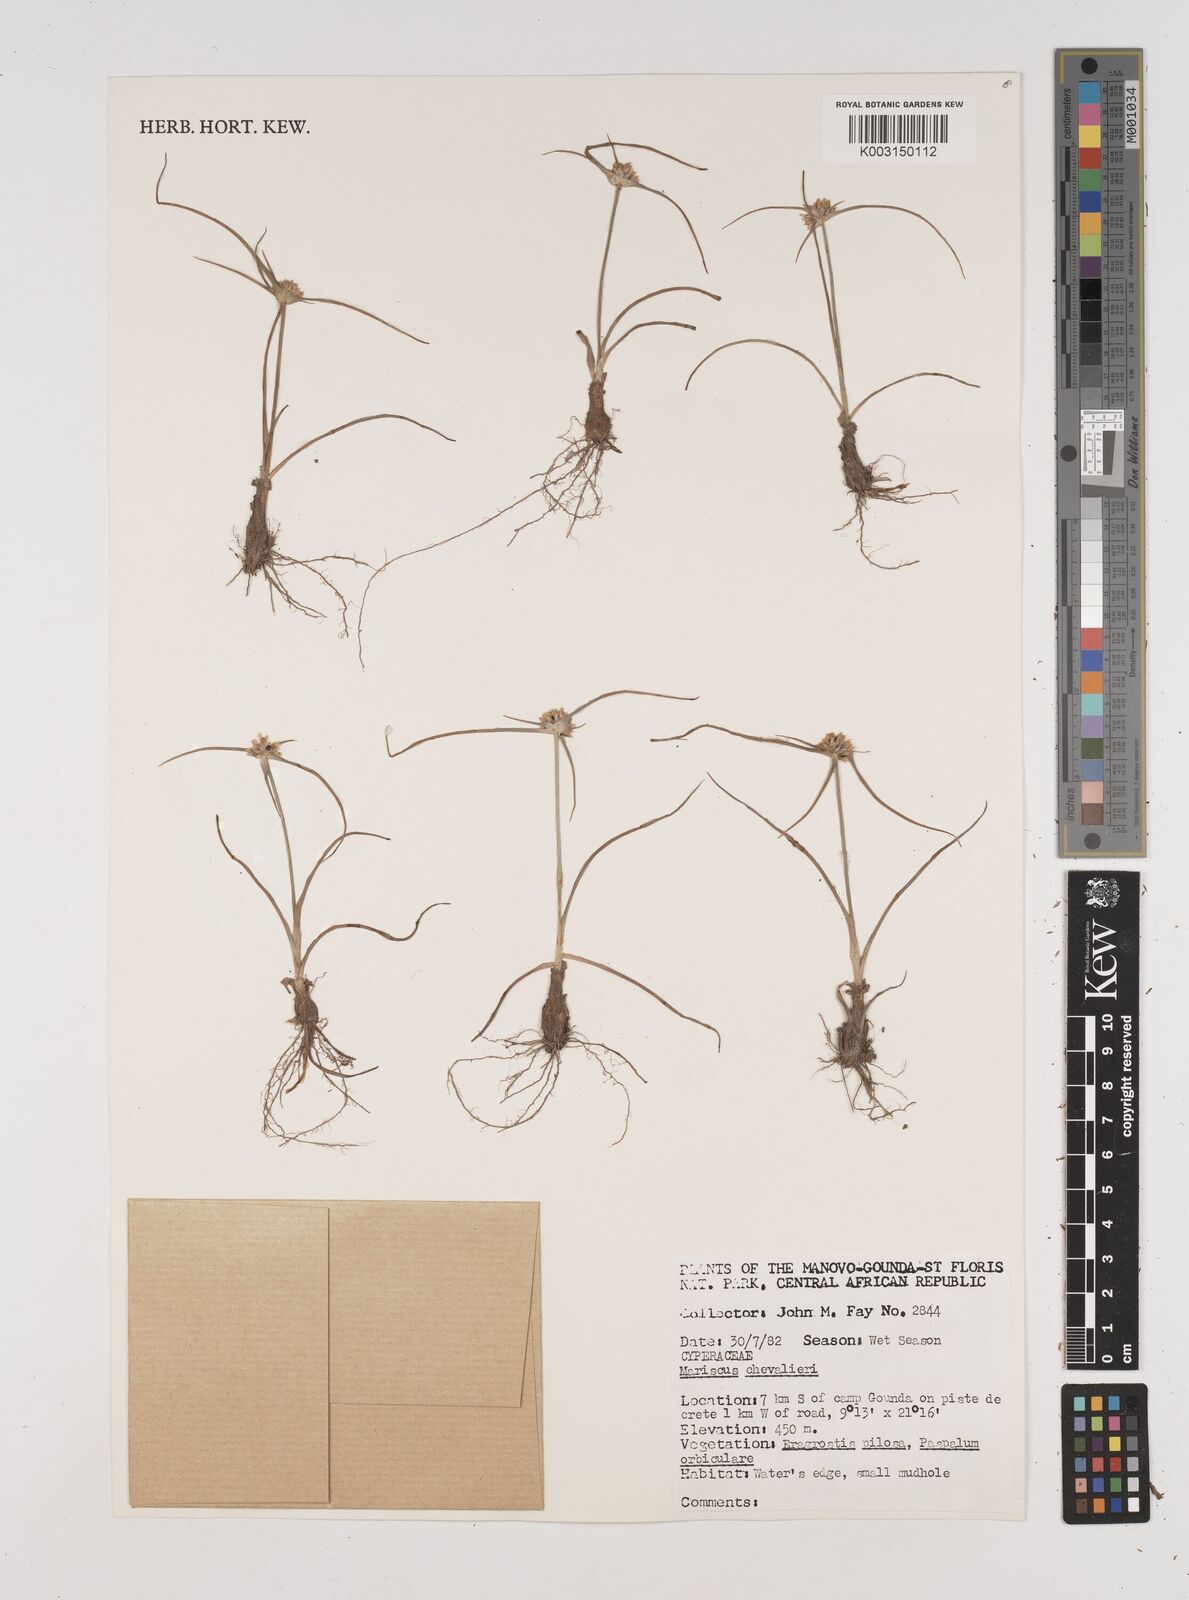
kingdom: Plantae
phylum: Tracheophyta
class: Liliopsida
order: Poales
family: Cyperaceae
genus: Cyperus
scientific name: Cyperus chevalieri
